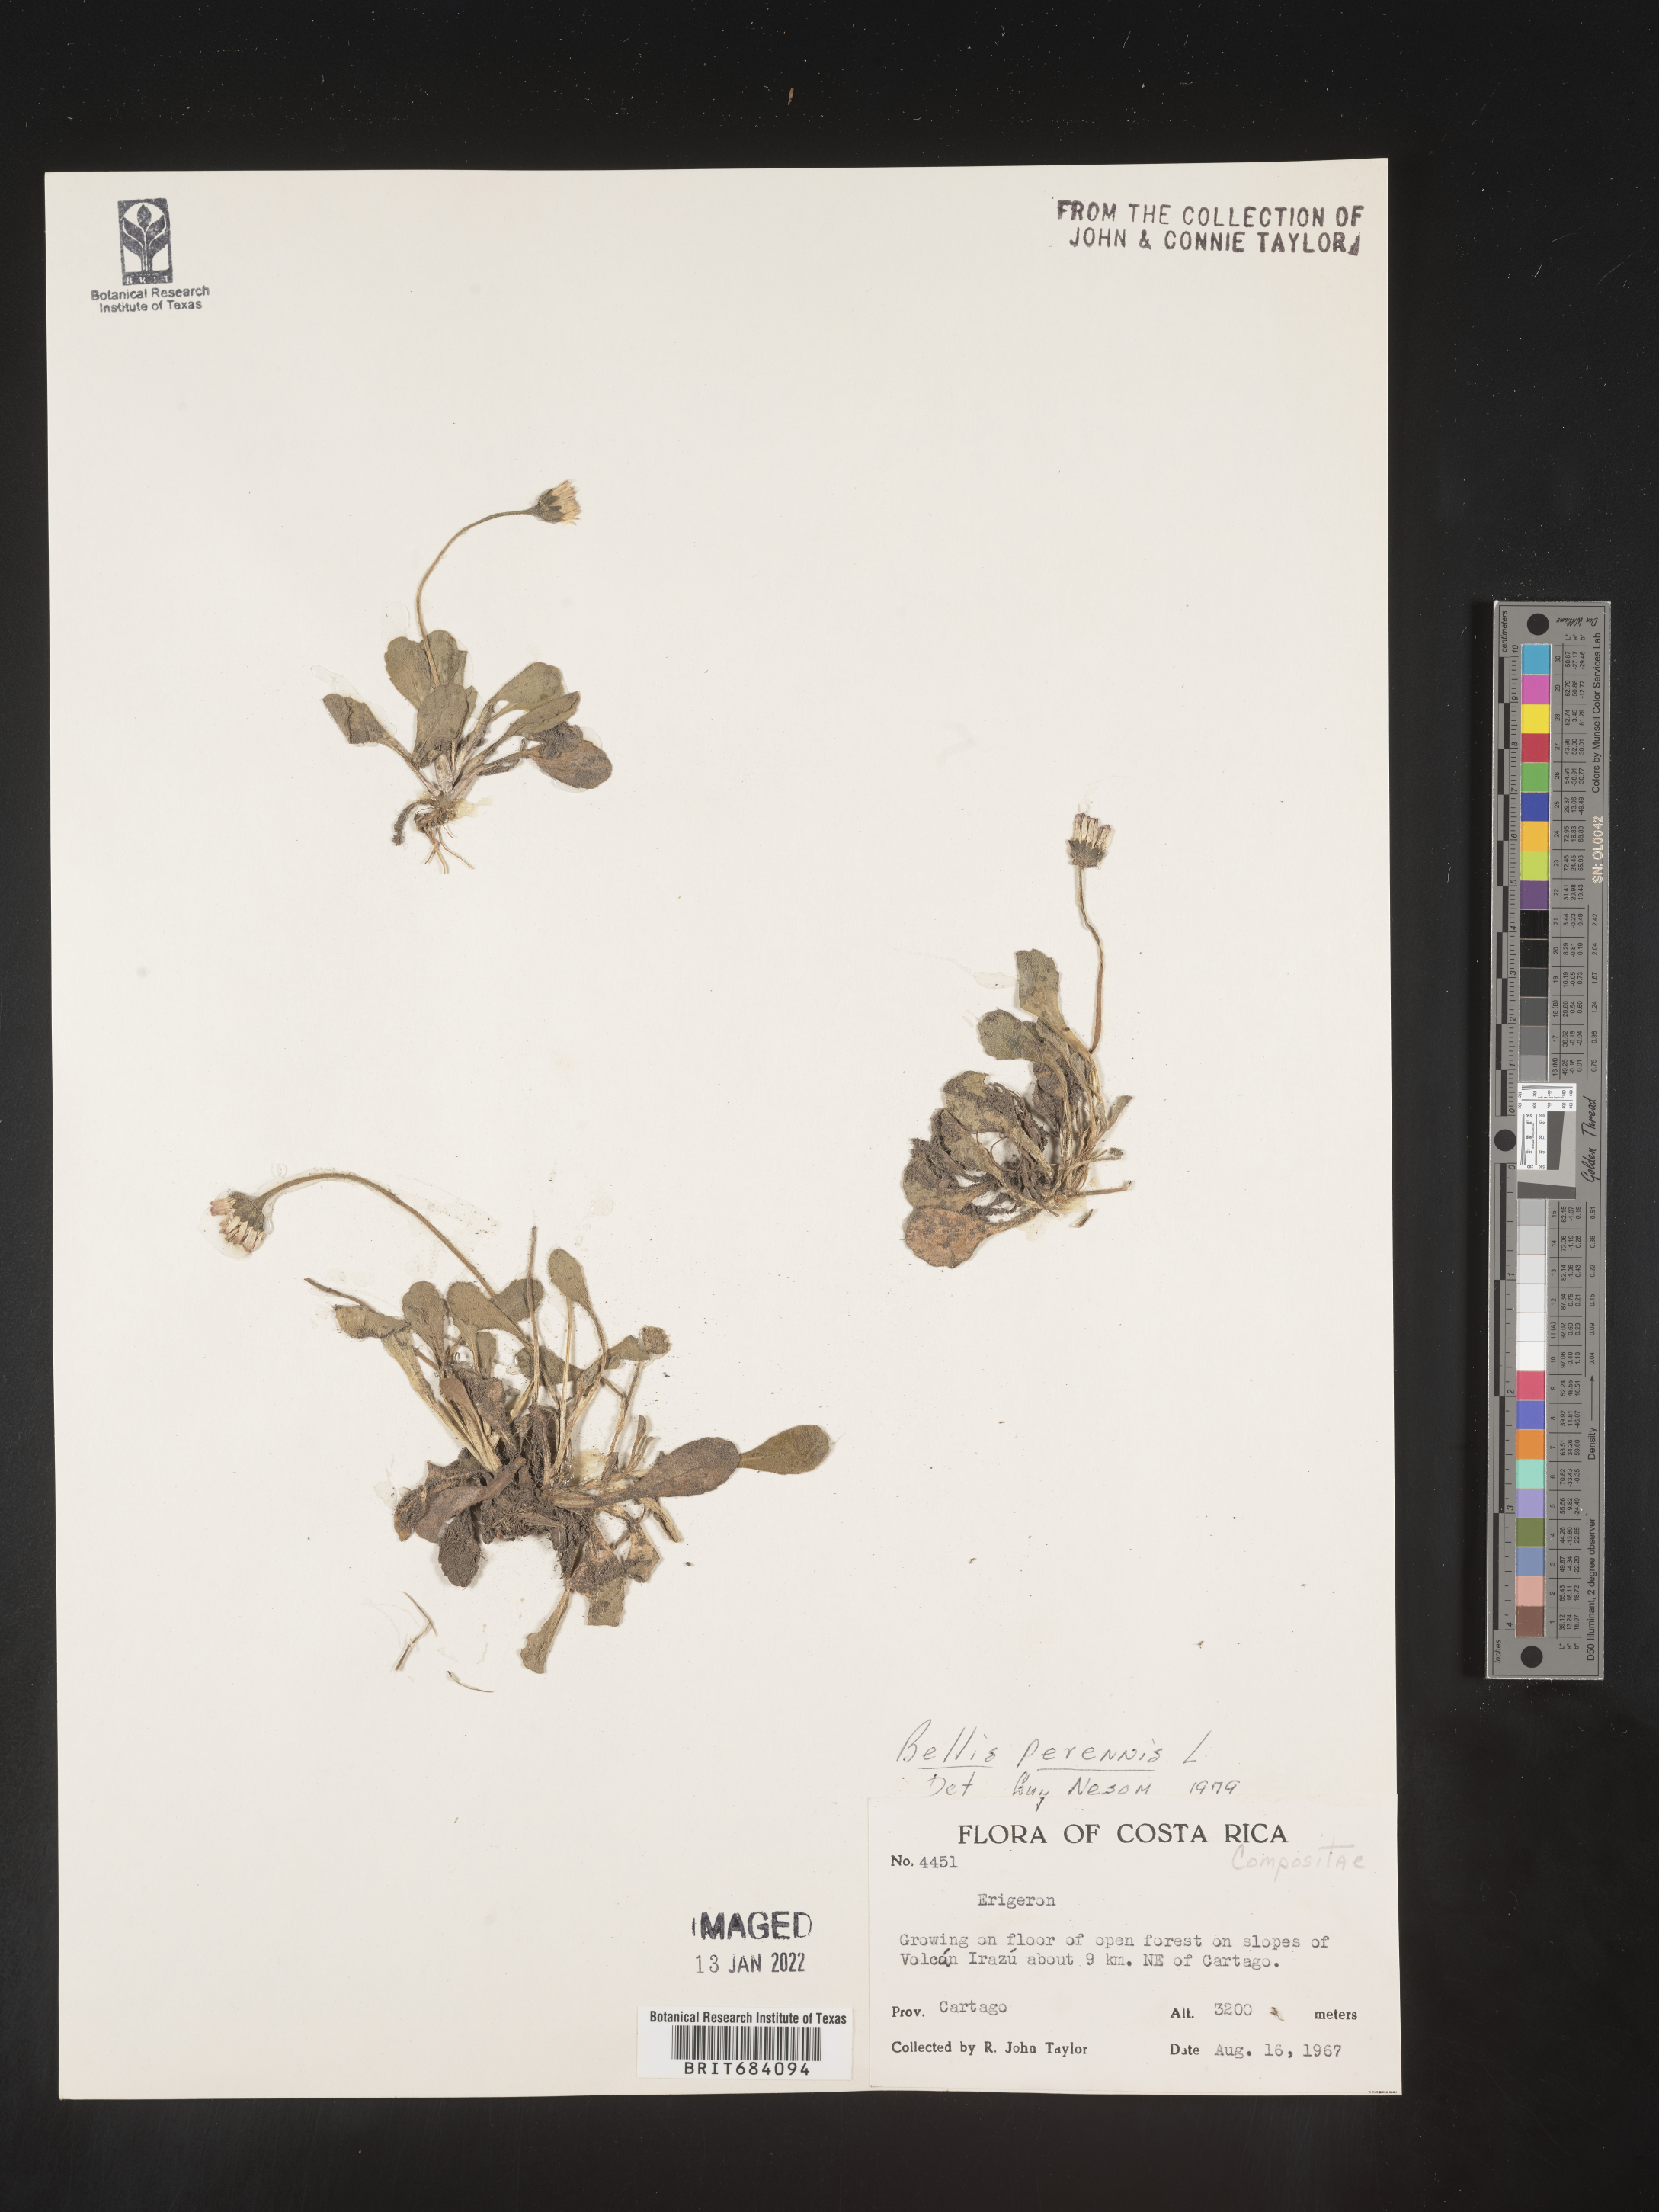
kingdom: Plantae
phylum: Tracheophyta
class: Magnoliopsida
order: Asterales
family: Asteraceae
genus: Bellis
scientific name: Bellis perennis
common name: Lawndaisy
